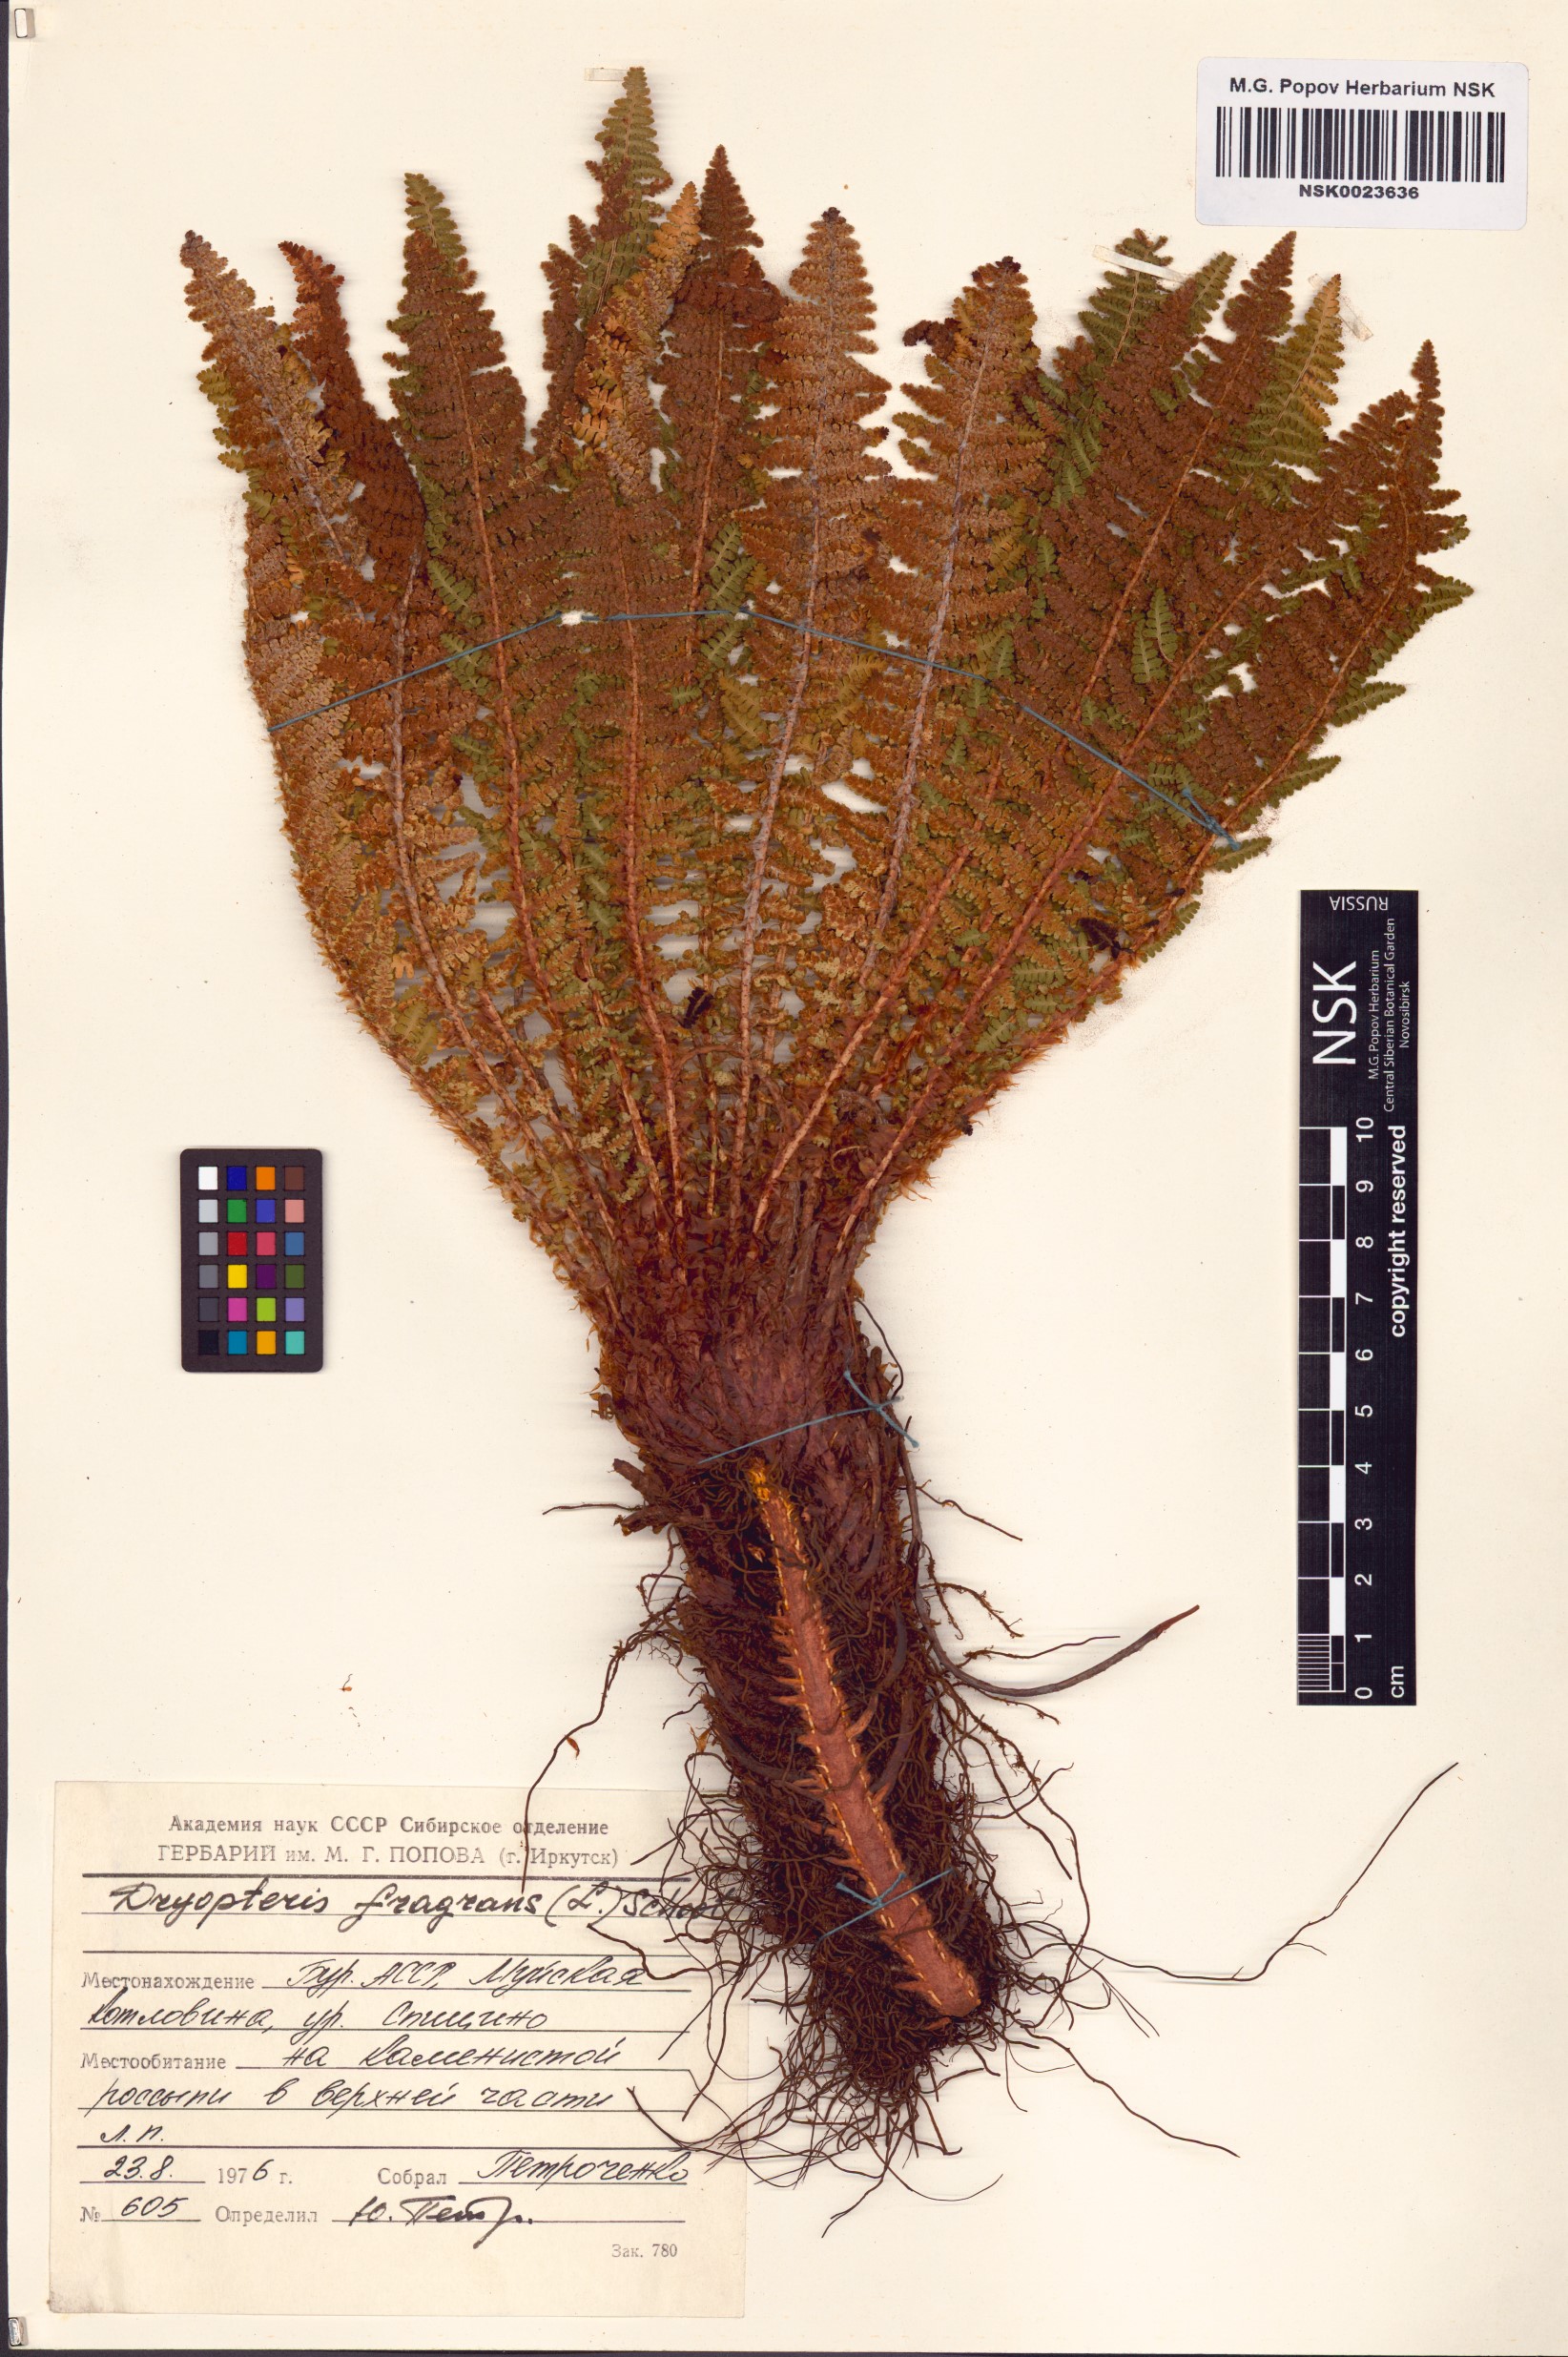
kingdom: Plantae
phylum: Tracheophyta
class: Polypodiopsida
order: Polypodiales
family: Dryopteridaceae
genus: Dryopteris
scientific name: Dryopteris fragrans
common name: Fragrant wood fern
